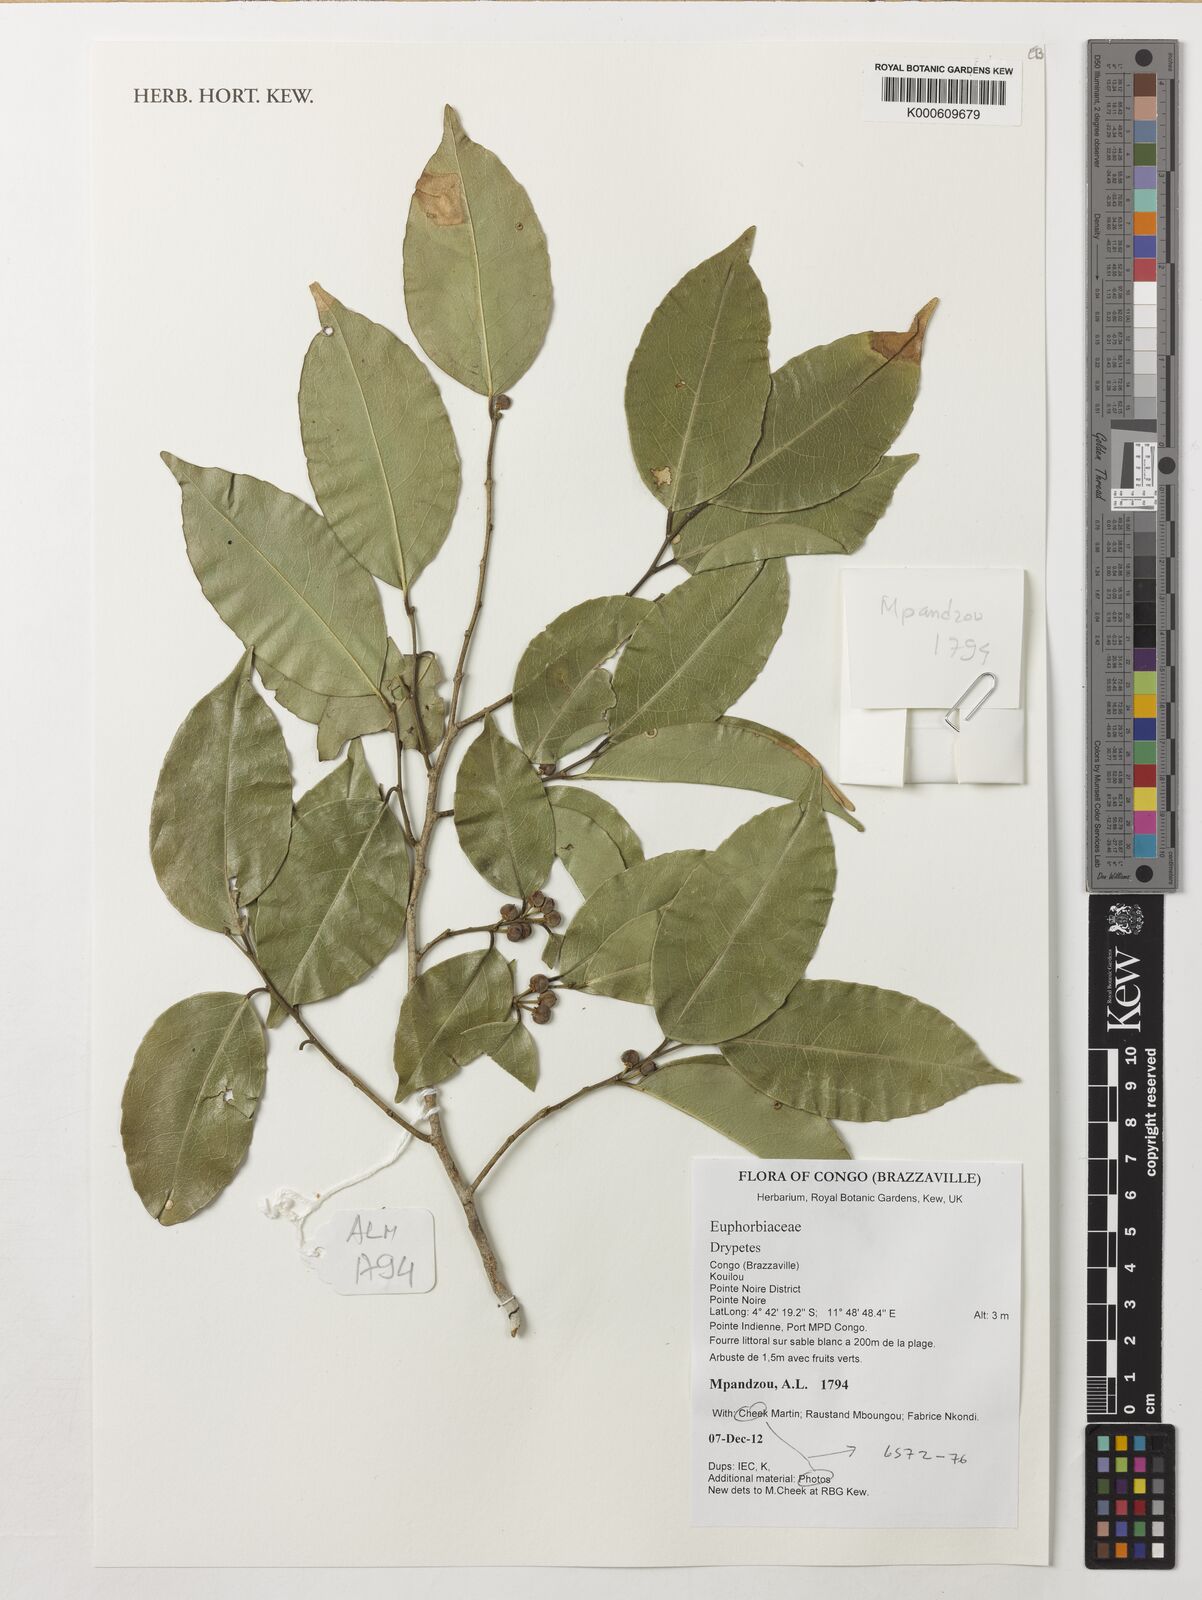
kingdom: Plantae
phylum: Tracheophyta
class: Magnoliopsida
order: Malpighiales
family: Putranjivaceae
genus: Drypetes
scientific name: Drypetes
